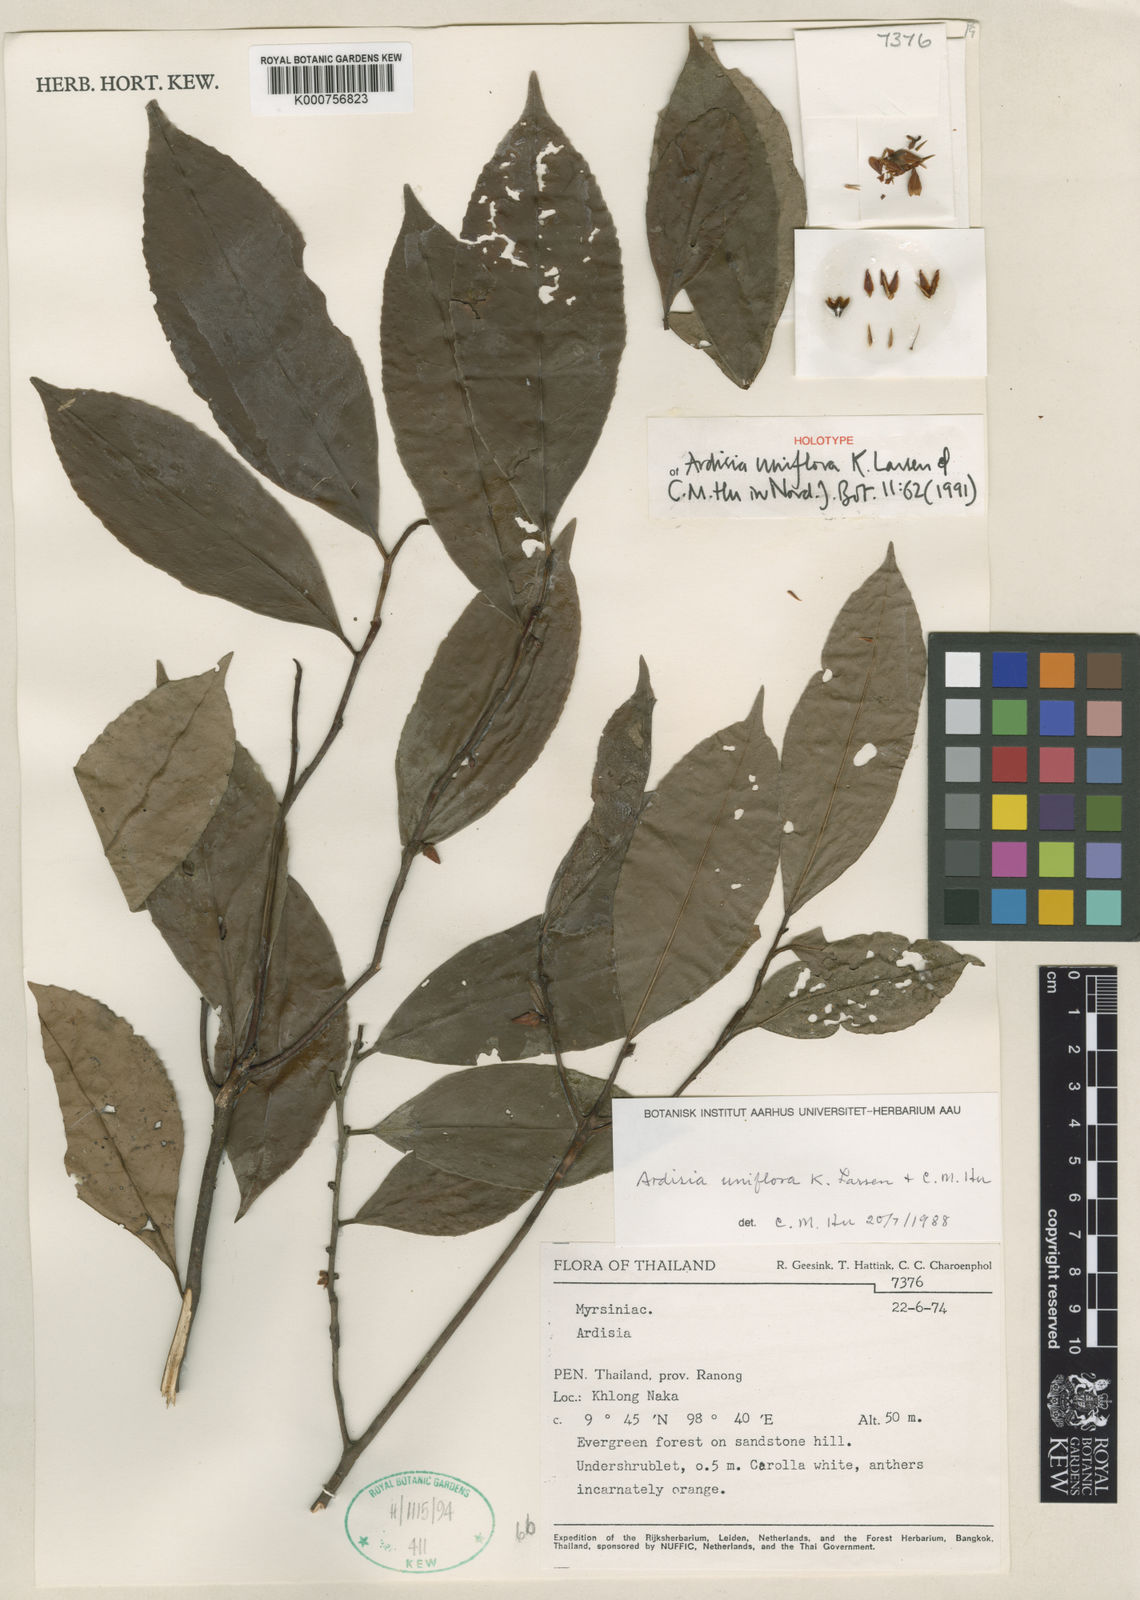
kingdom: Plantae
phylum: Tracheophyta
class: Magnoliopsida
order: Ericales
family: Primulaceae
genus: Ardisia
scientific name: Ardisia uniflora
